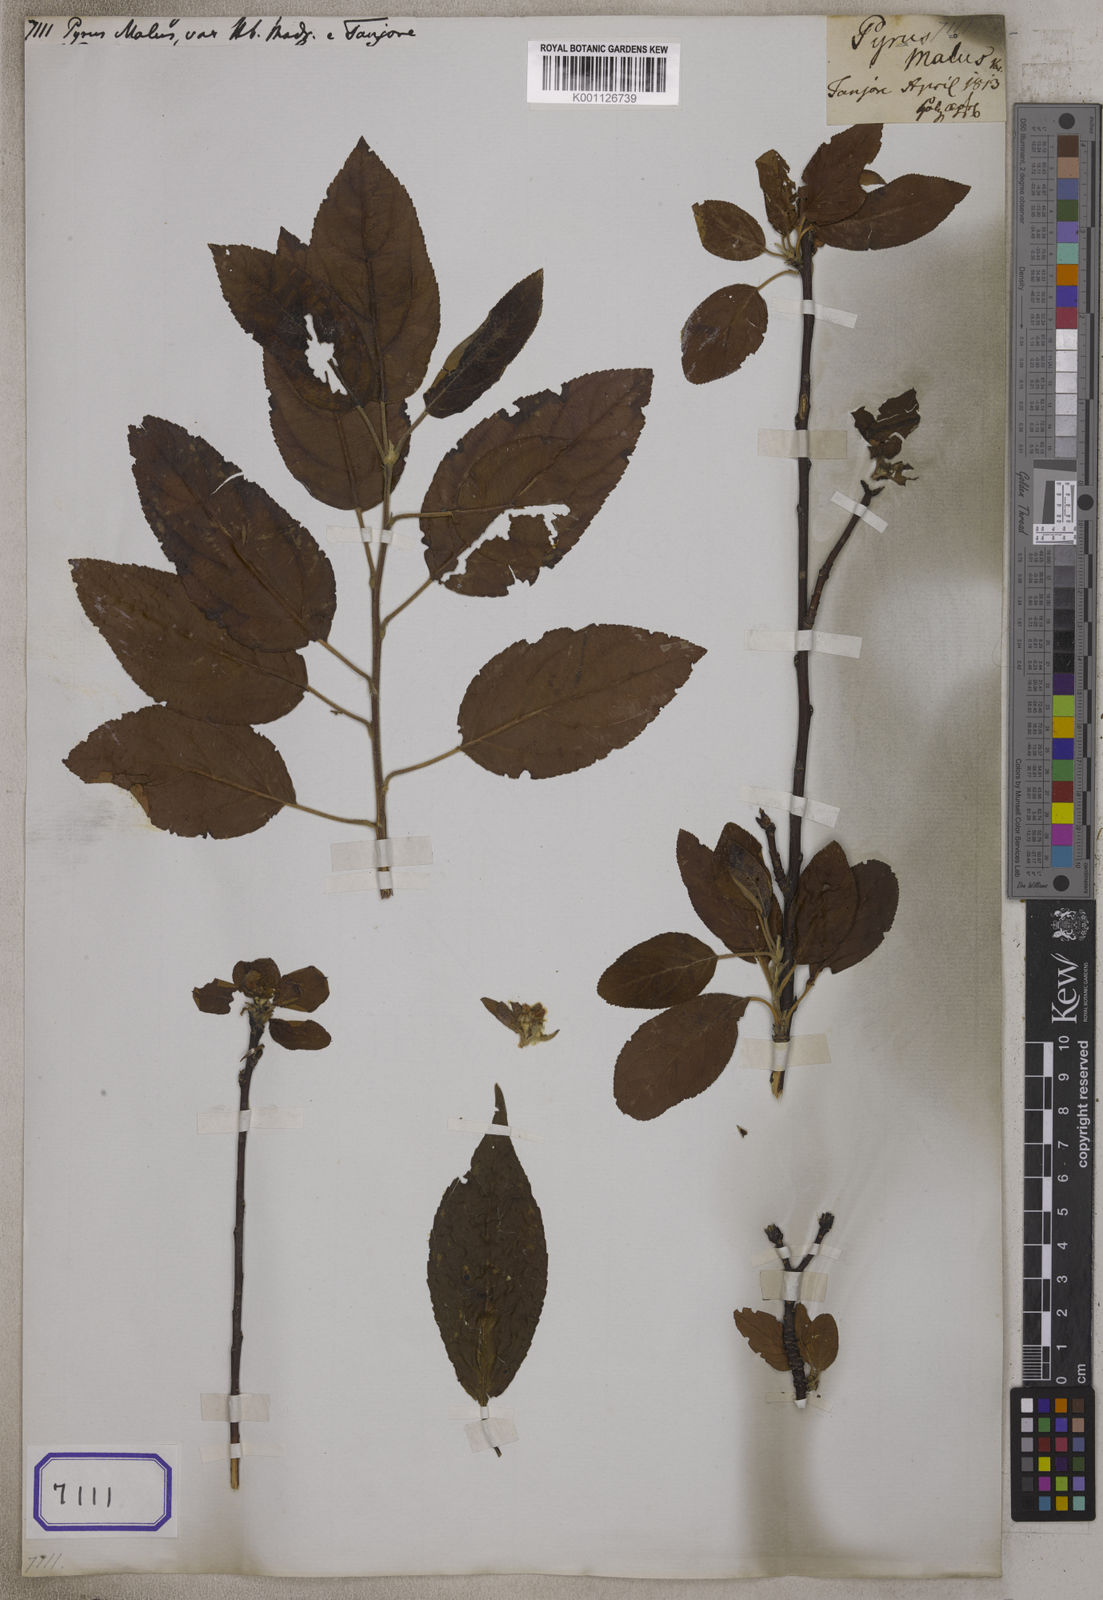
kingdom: Plantae
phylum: Tracheophyta
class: Magnoliopsida
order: Rosales
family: Rosaceae
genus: Malus
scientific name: Malus domestica
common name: Apple
